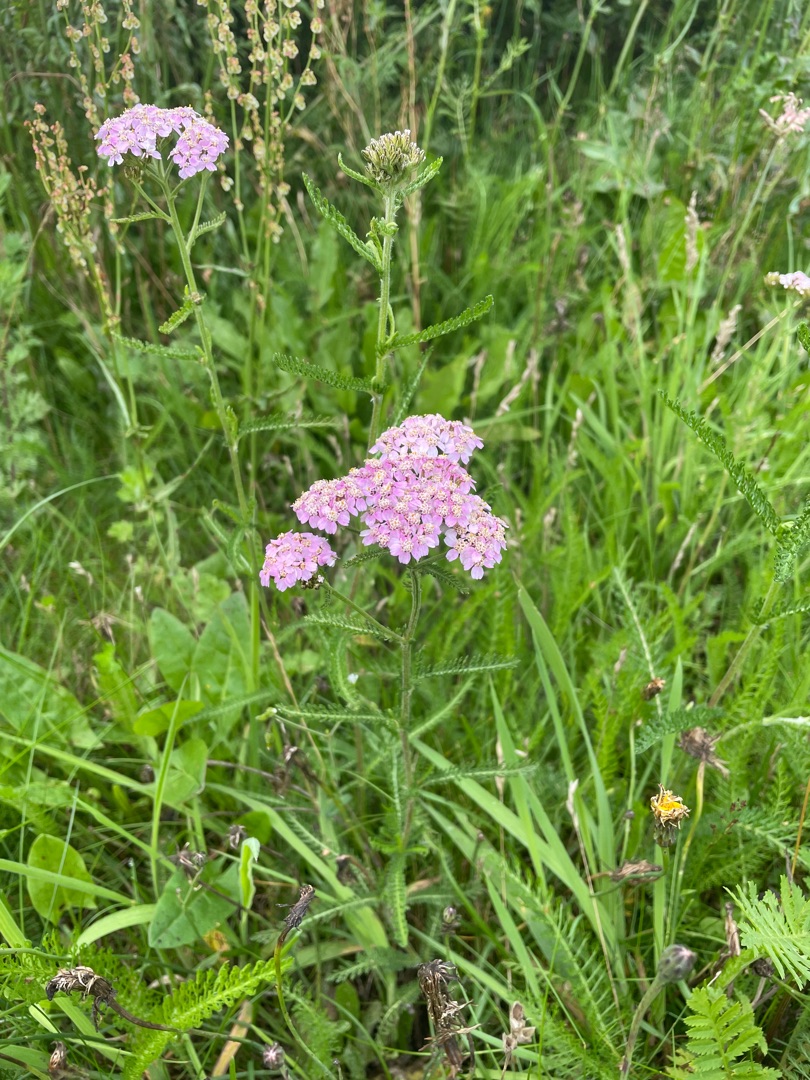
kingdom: Plantae
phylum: Tracheophyta
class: Magnoliopsida
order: Asterales
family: Asteraceae
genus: Achillea
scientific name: Achillea millefolium
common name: Almindelig røllike
